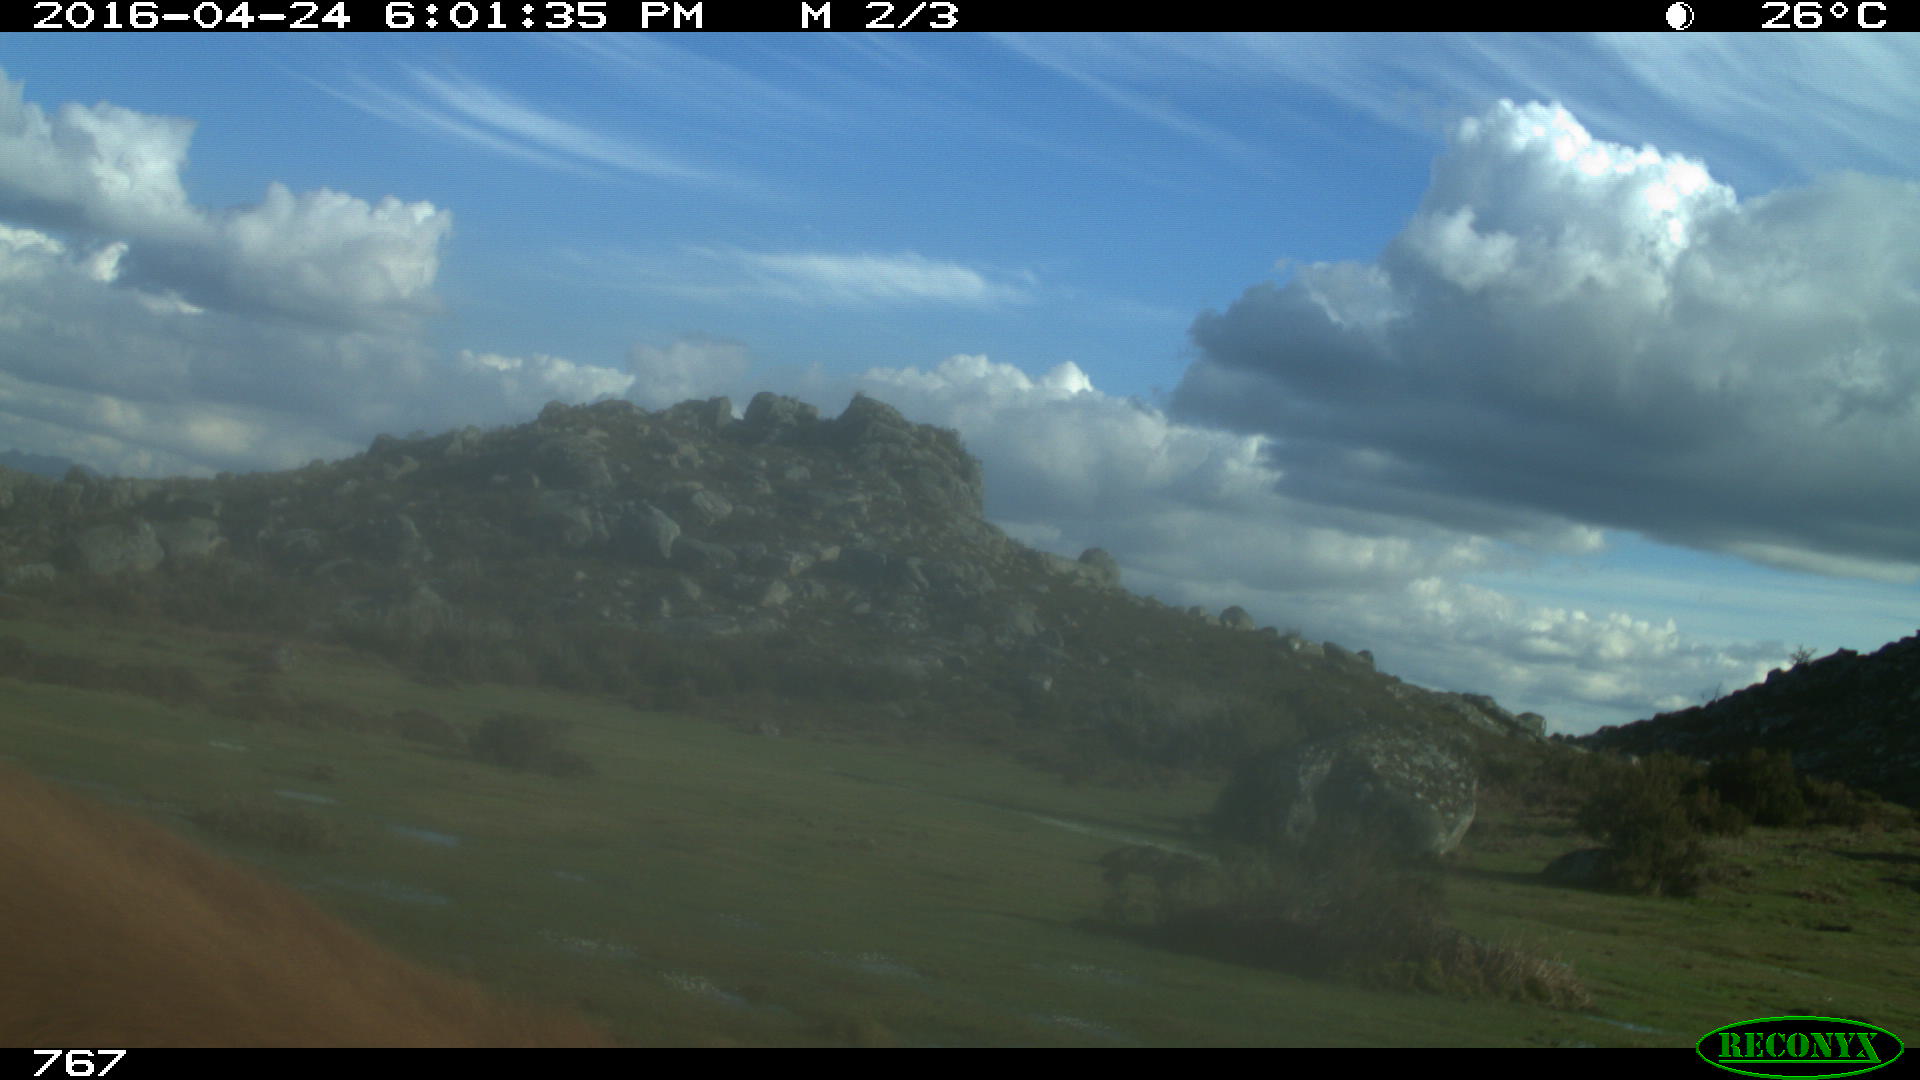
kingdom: Animalia
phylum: Chordata
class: Mammalia
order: Perissodactyla
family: Equidae
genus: Equus
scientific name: Equus caballus
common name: Horse
